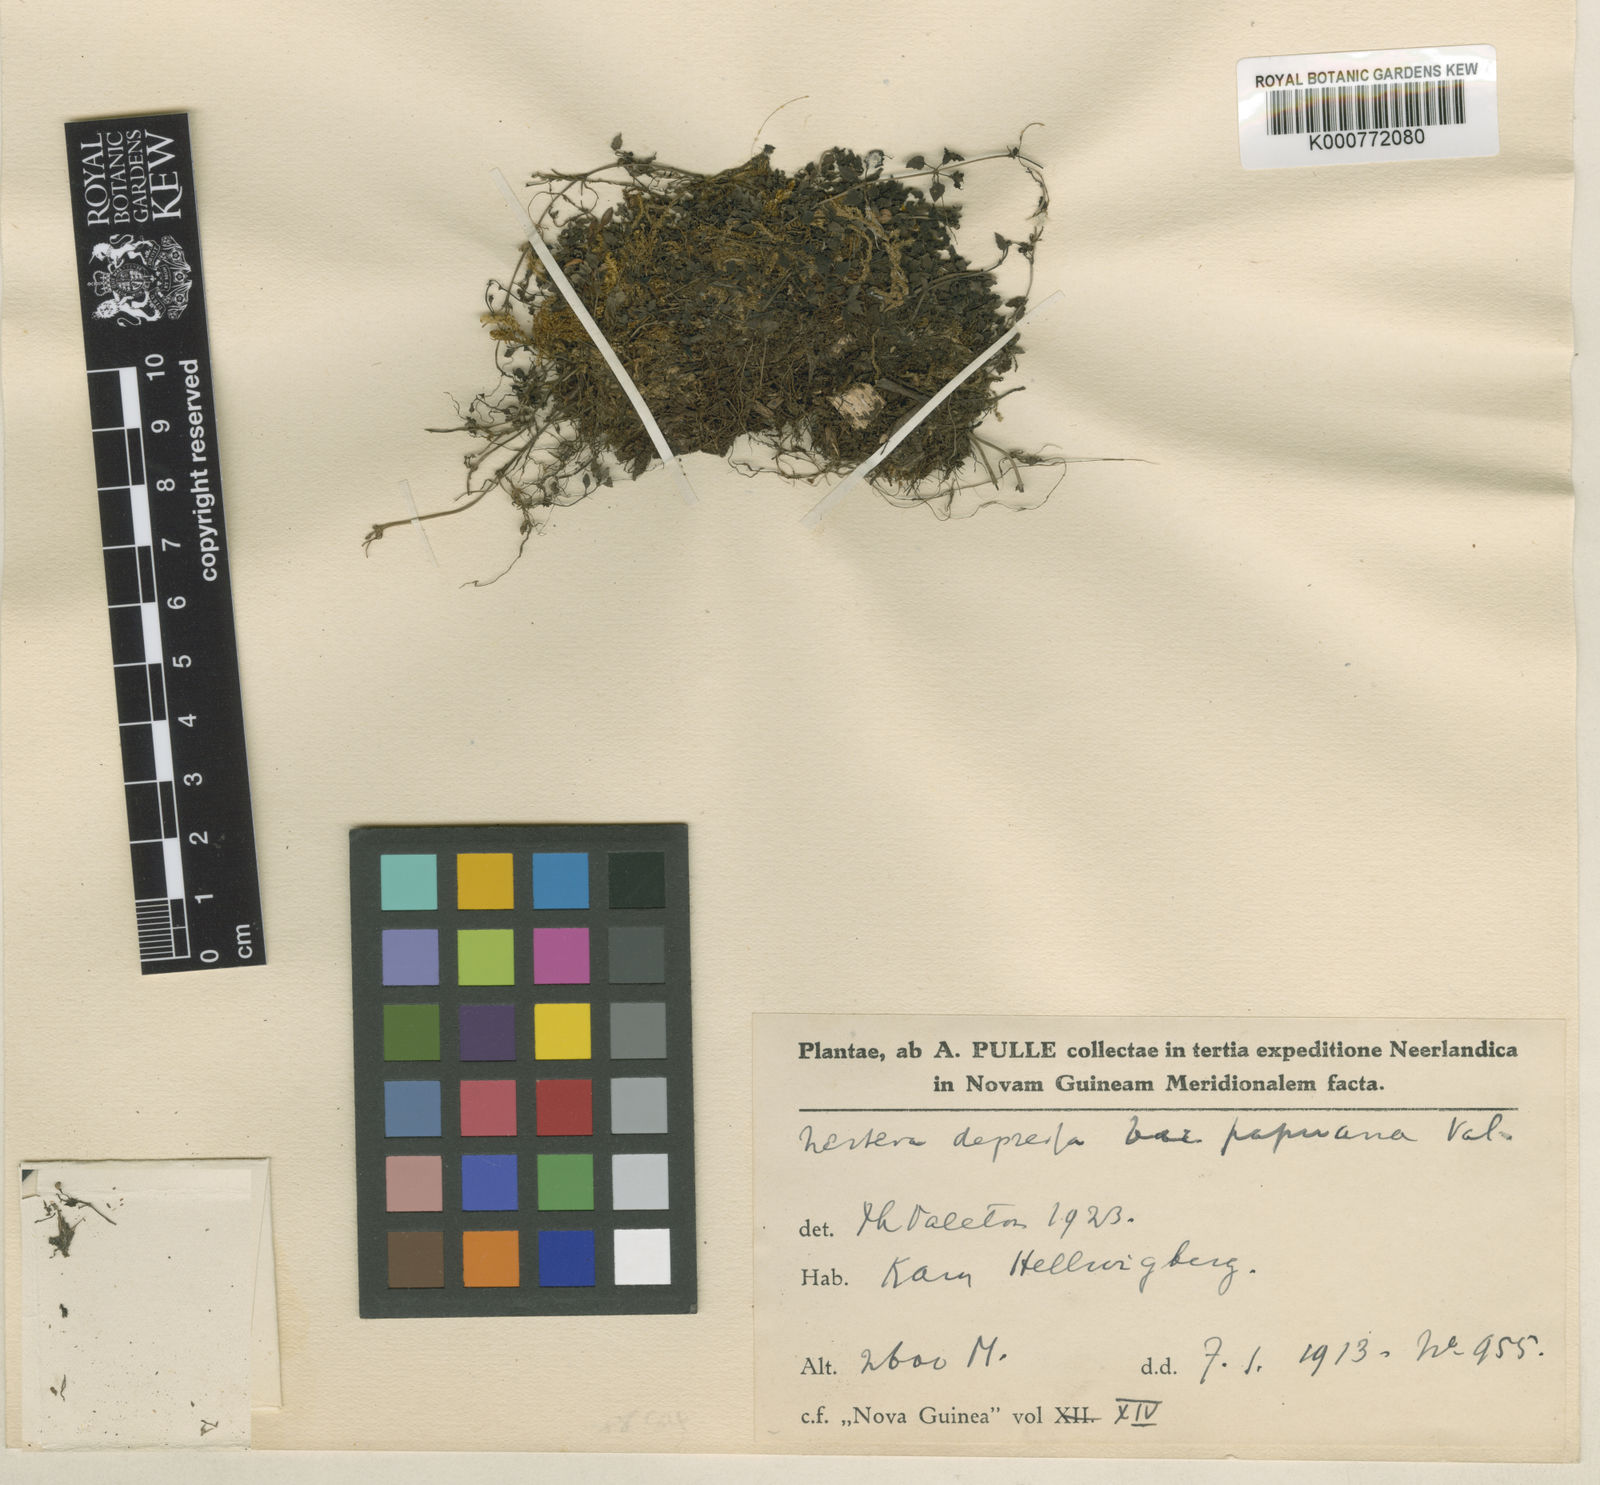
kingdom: Plantae
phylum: Tracheophyta
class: Magnoliopsida
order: Gentianales
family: Rubiaceae
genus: Nertera
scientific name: Nertera granadensis
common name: Beadplant
